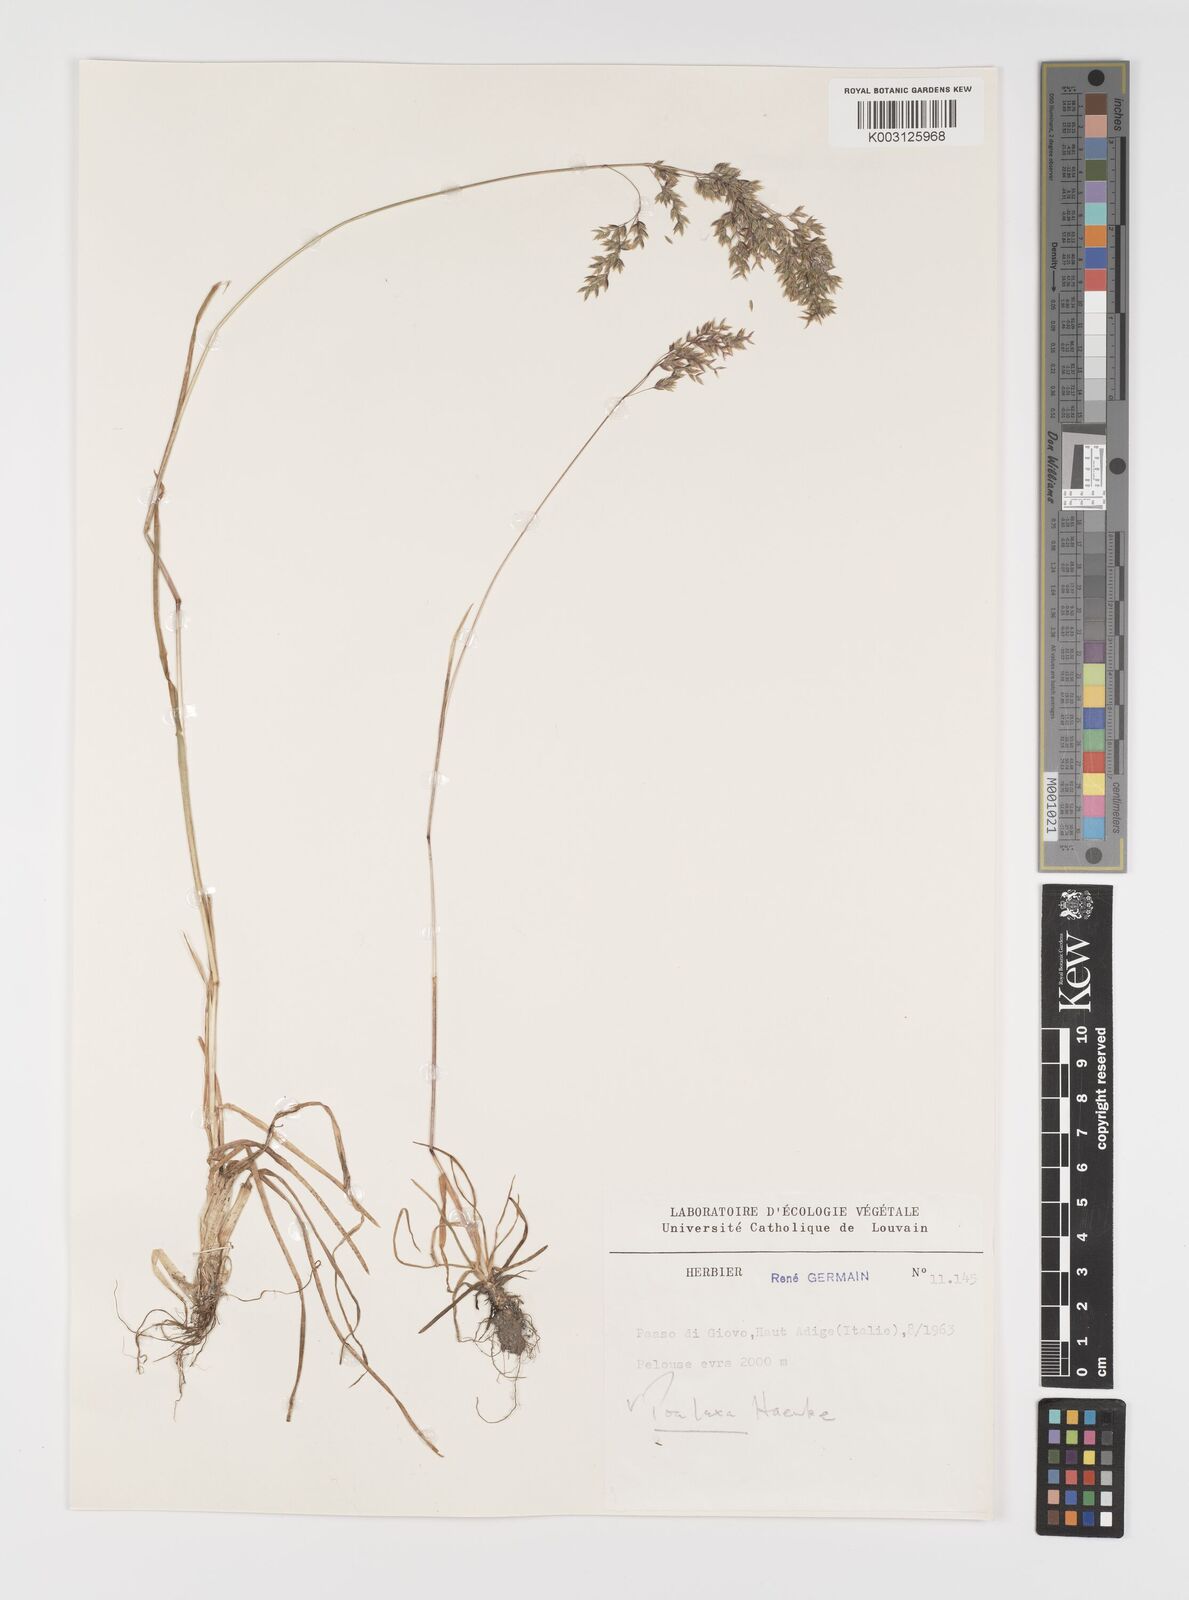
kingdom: Plantae
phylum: Tracheophyta
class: Liliopsida
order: Poales
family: Poaceae
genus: Poa
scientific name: Poa laxa
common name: Lax bluegrass
